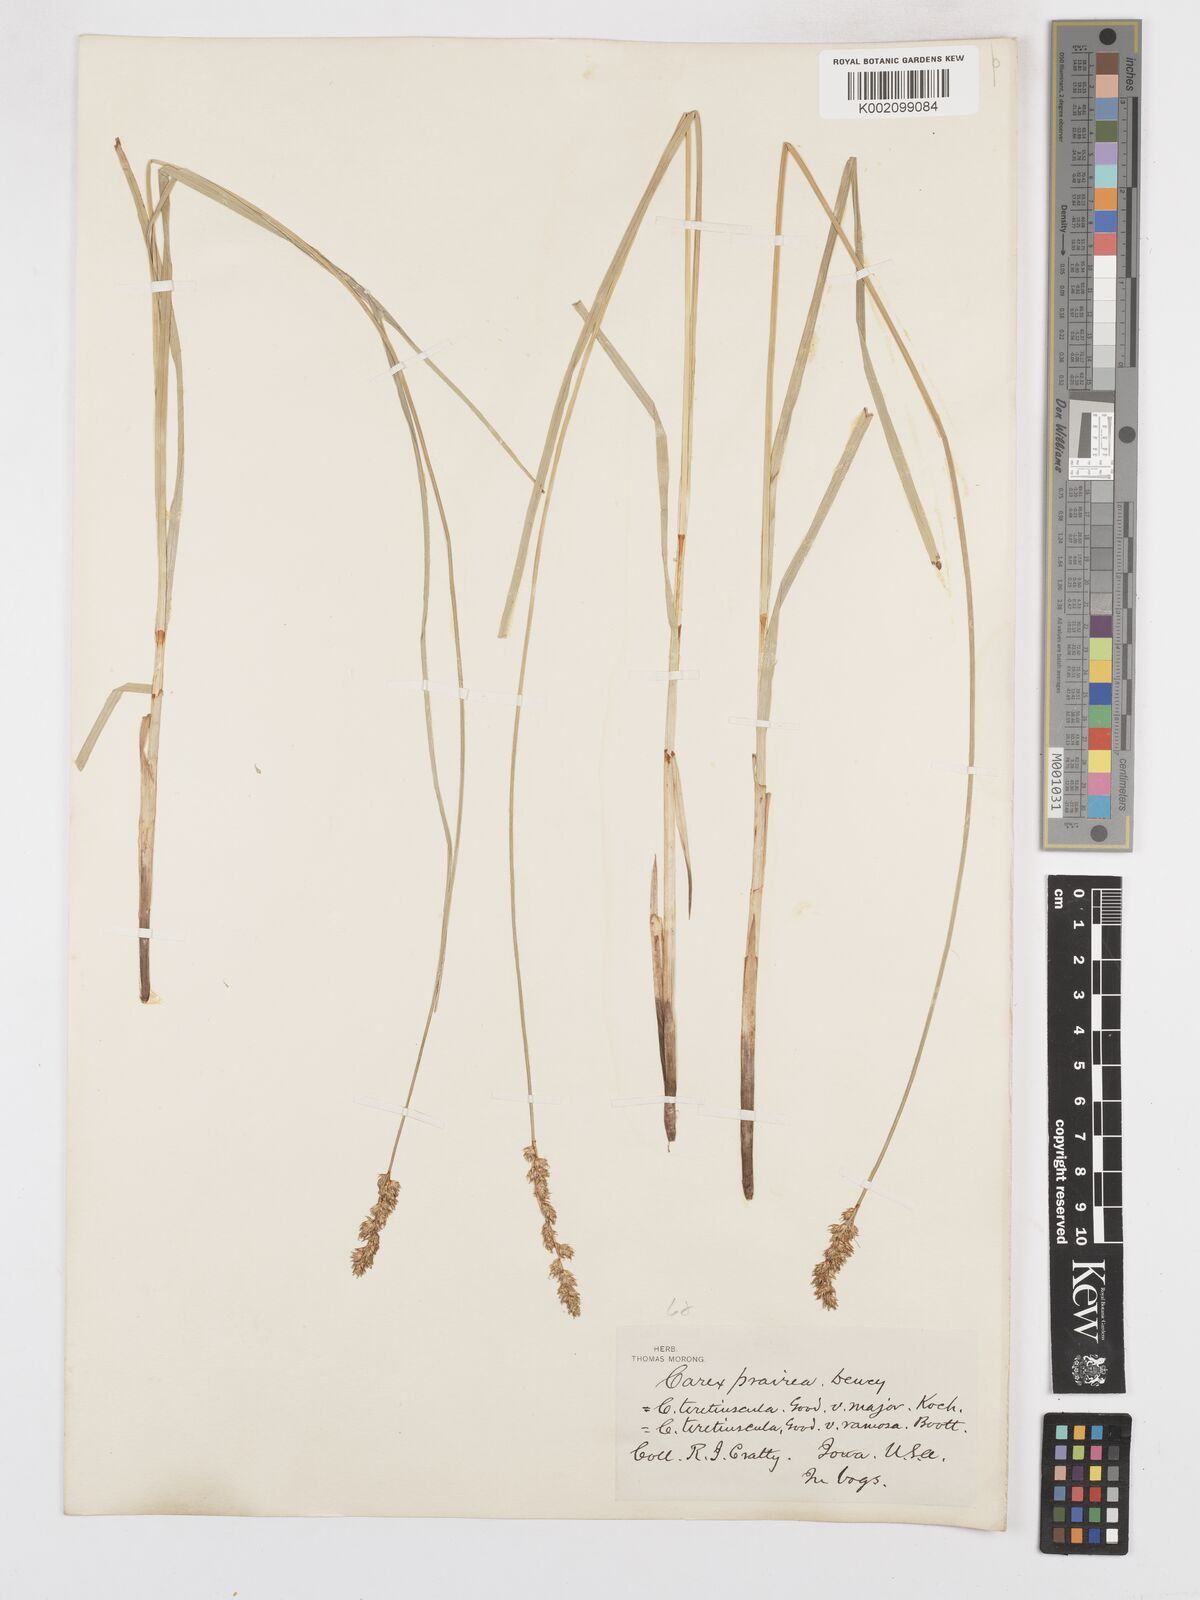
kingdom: Plantae
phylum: Tracheophyta
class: Liliopsida
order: Poales
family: Cyperaceae
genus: Carex
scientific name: Carex prairea
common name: Prairie sedge
